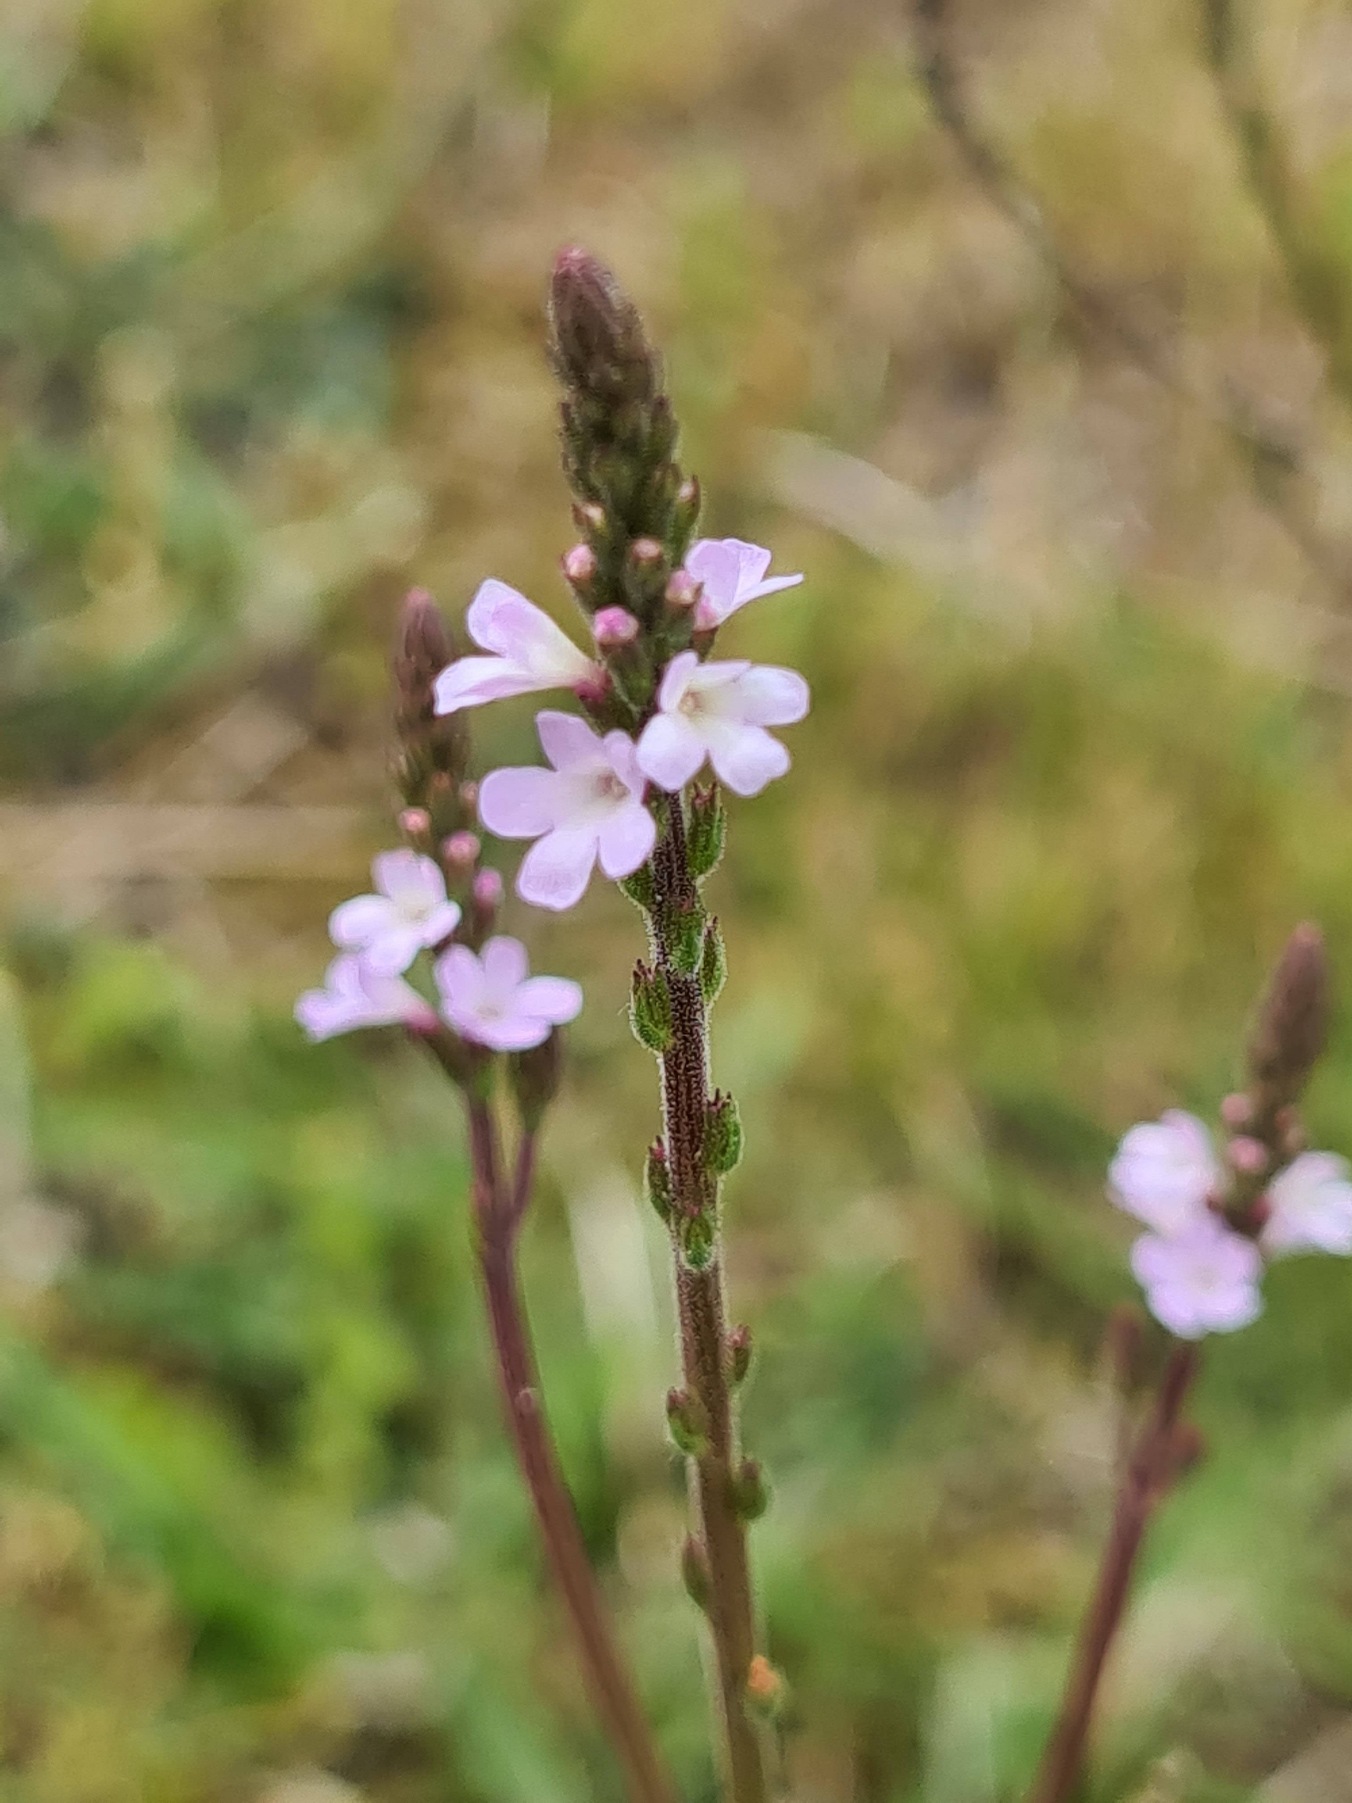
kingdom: Plantae
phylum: Tracheophyta
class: Magnoliopsida
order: Lamiales
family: Verbenaceae
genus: Verbena
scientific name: Verbena officinalis
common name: Læge-jernurt
